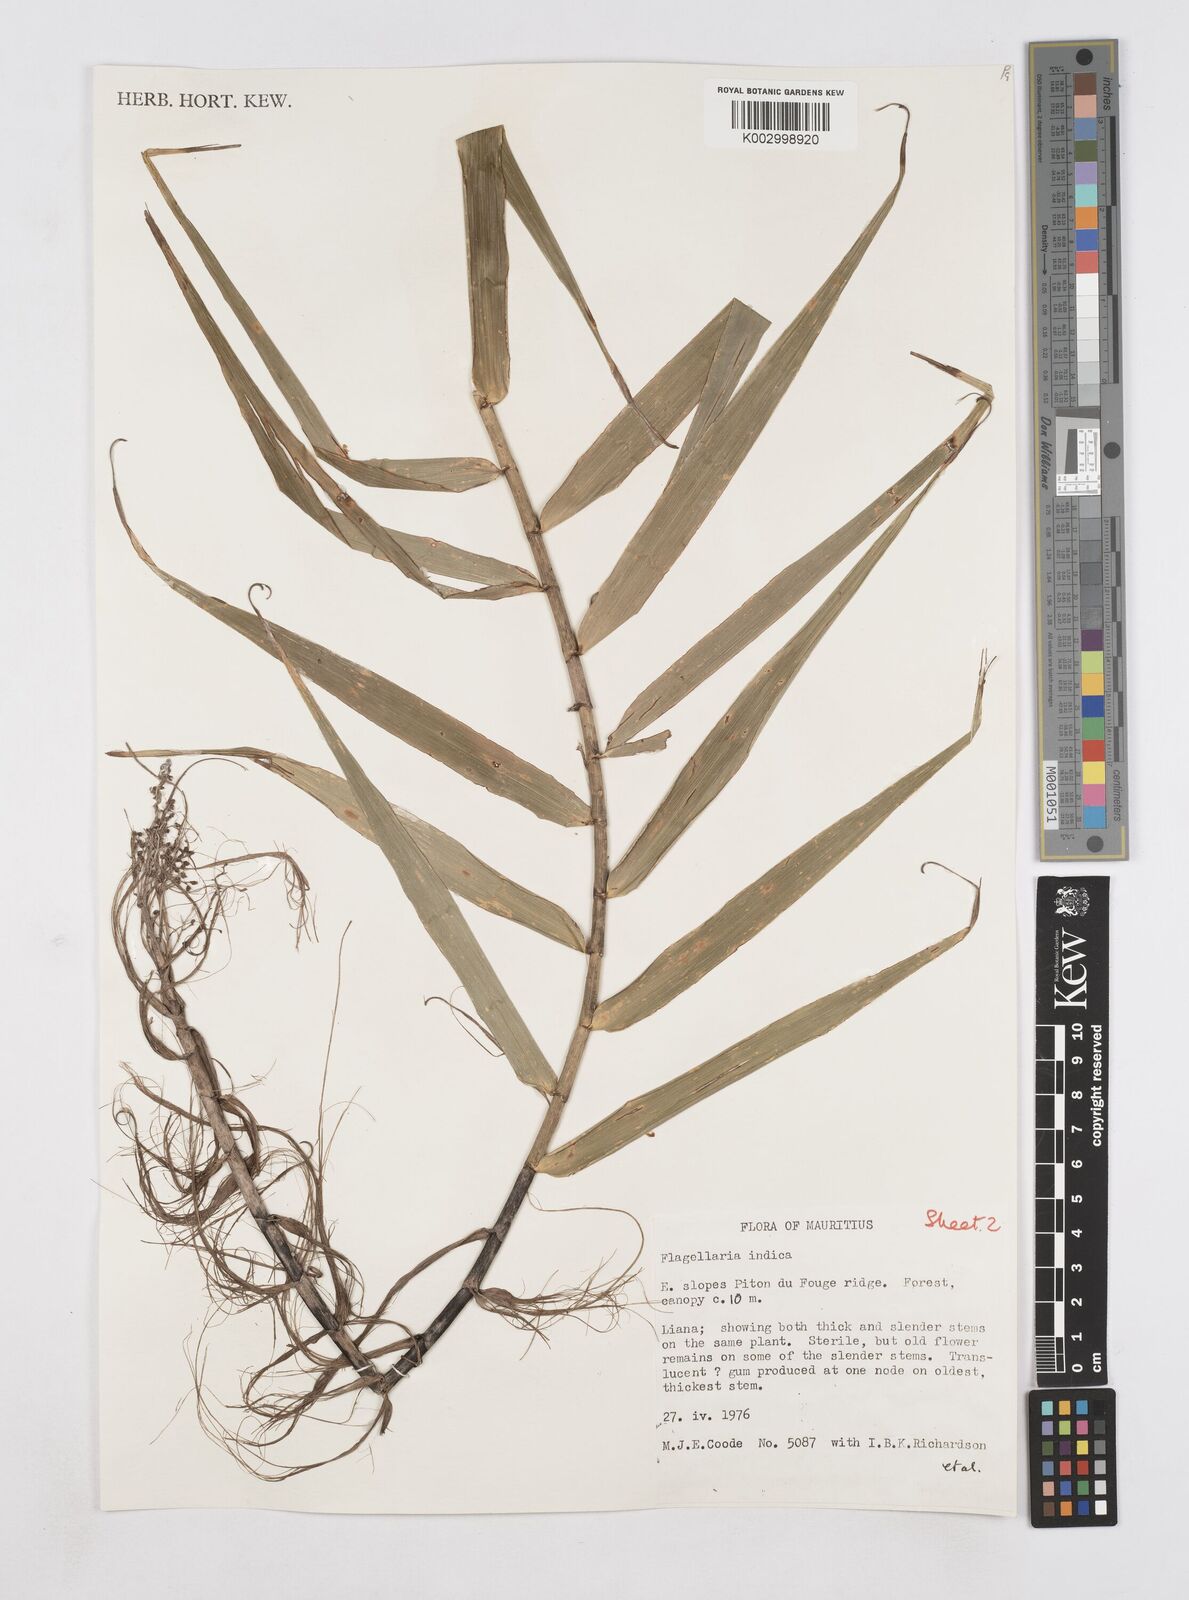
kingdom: Plantae
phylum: Tracheophyta
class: Liliopsida
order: Poales
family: Flagellariaceae
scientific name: Flagellariaceae
